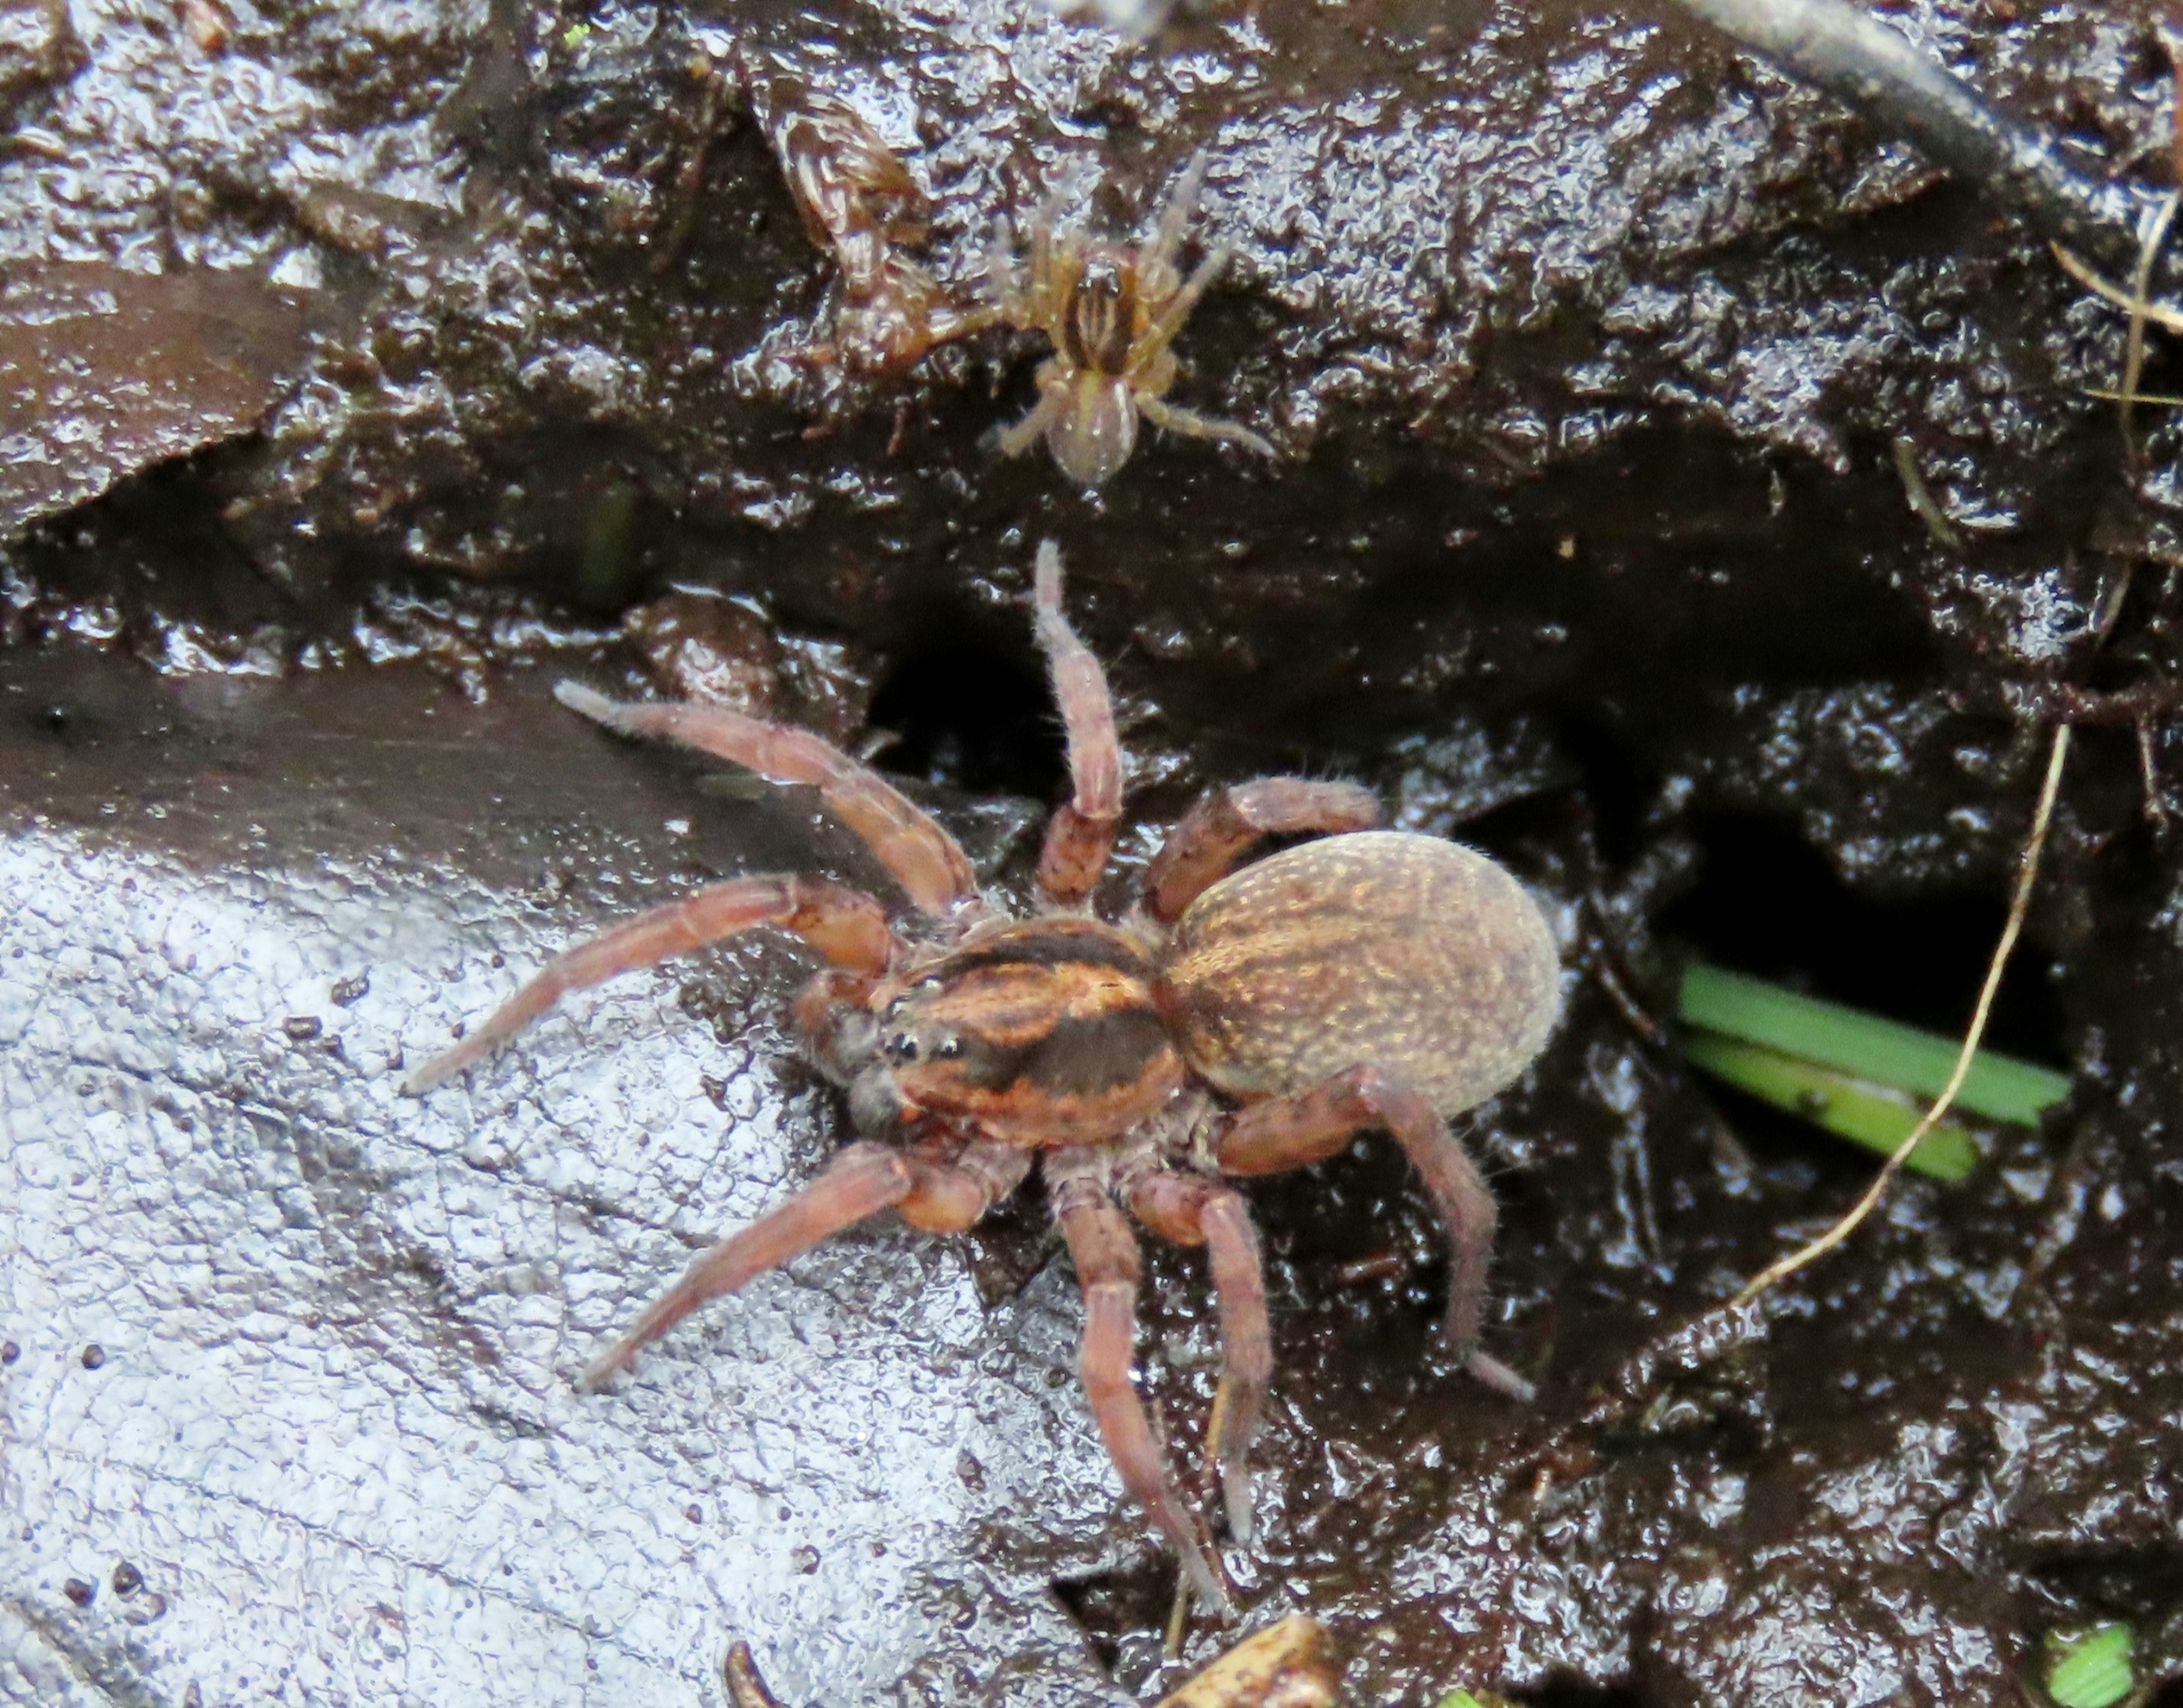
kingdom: Animalia
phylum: Arthropoda
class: Arachnida
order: Araneae
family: Lycosidae
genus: Trochosa
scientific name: Trochosa
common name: Bjørneedderkopslægten
